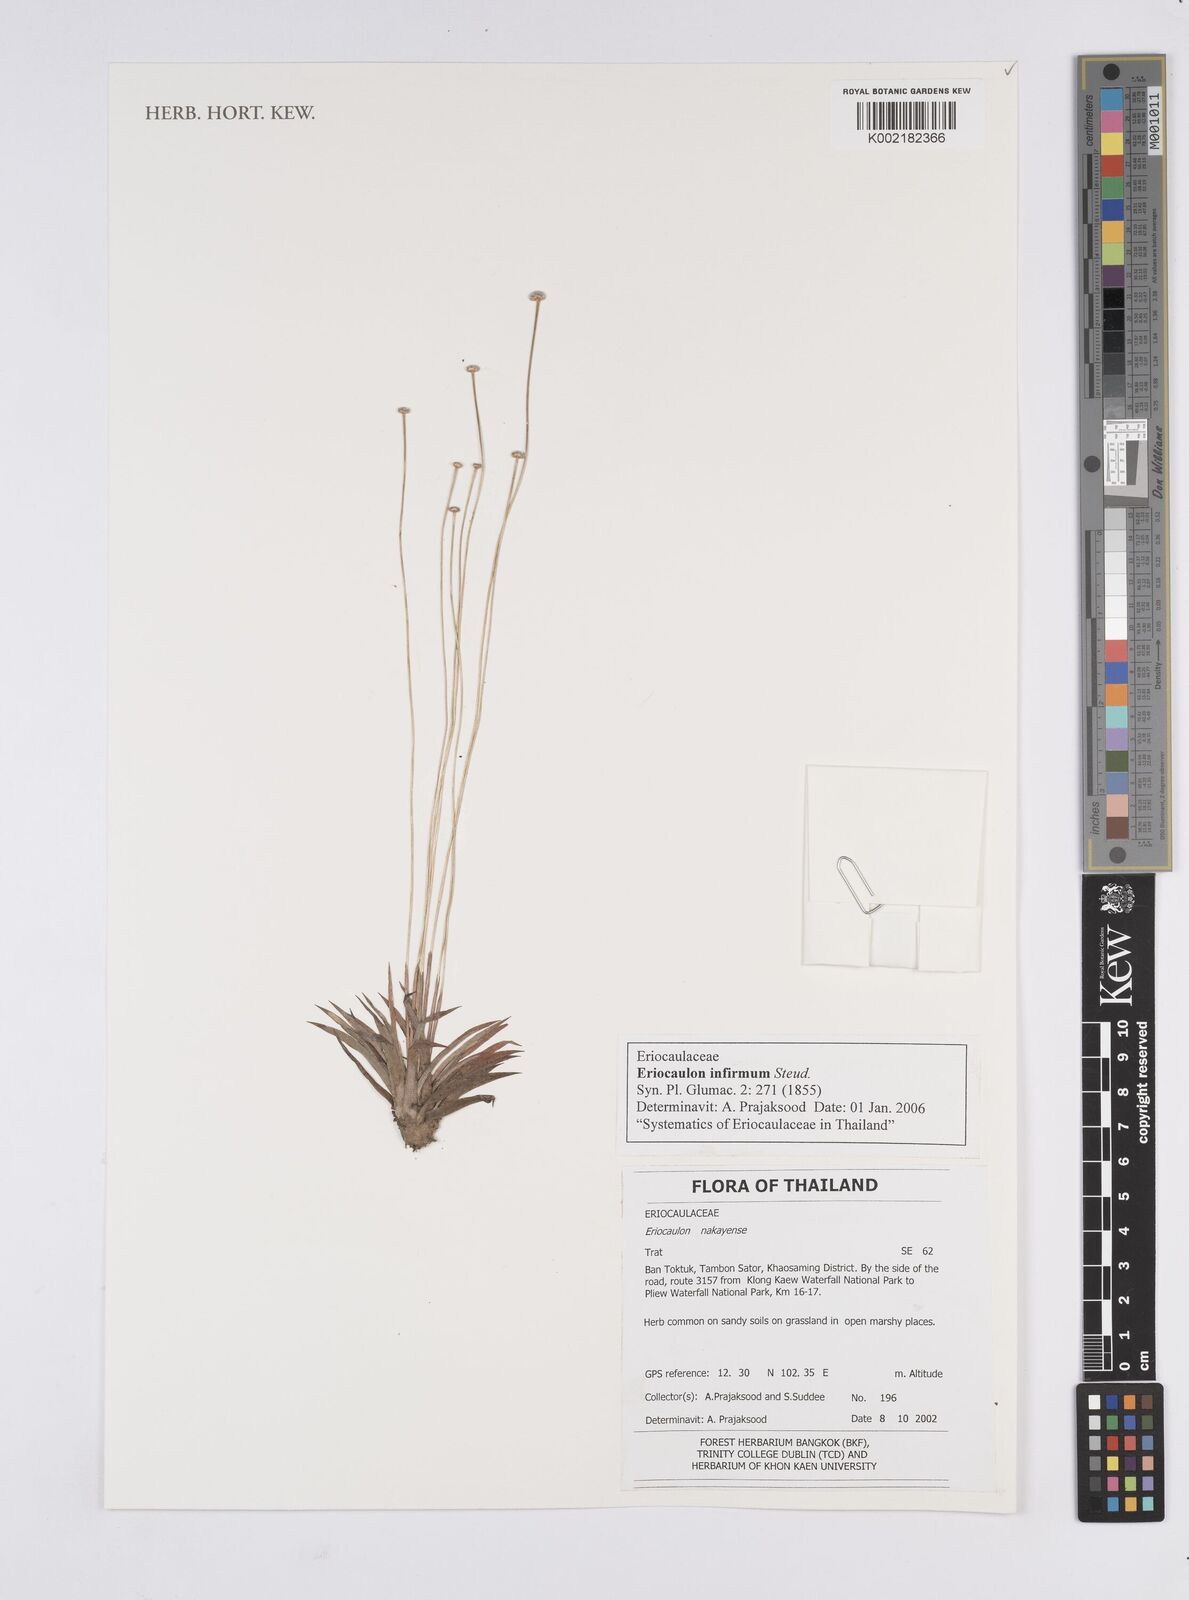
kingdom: Plantae
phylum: Tracheophyta
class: Liliopsida
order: Poales
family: Eriocaulaceae
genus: Eriocaulon
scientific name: Eriocaulon infirmum
